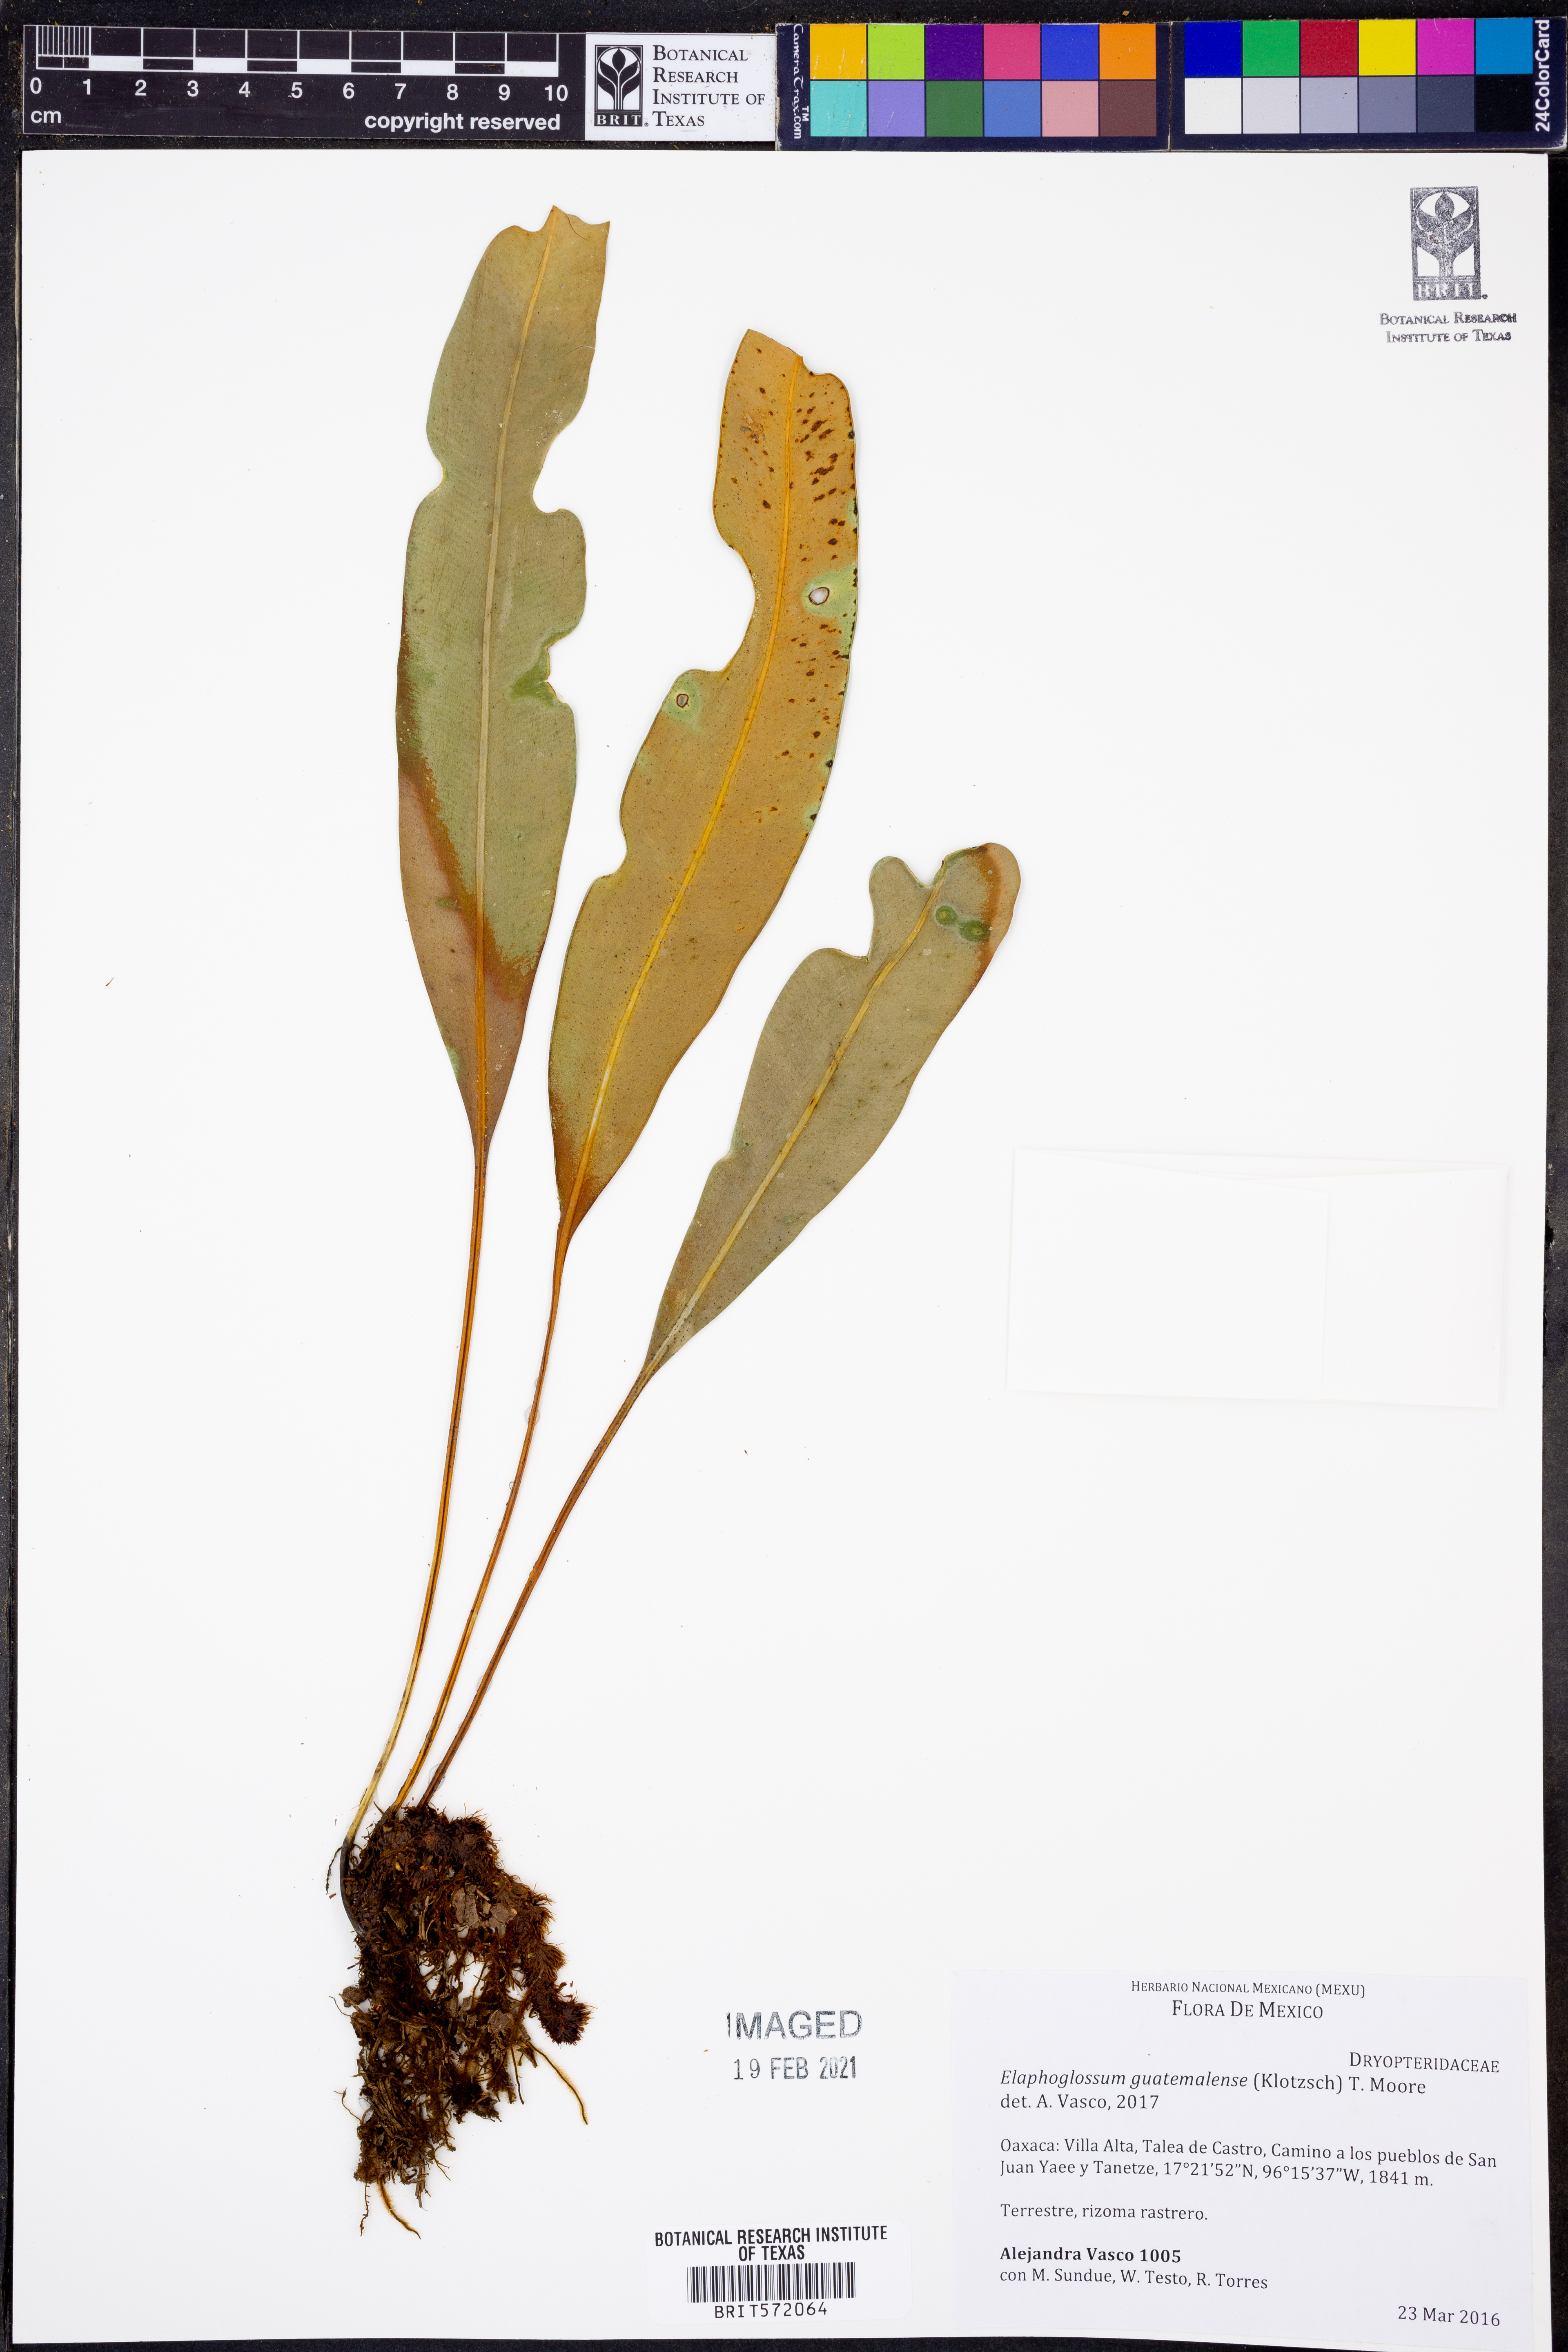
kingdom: Plantae
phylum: Tracheophyta
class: Polypodiopsida
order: Polypodiales
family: Dryopteridaceae
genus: Elaphoglossum
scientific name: Elaphoglossum guatemalense
